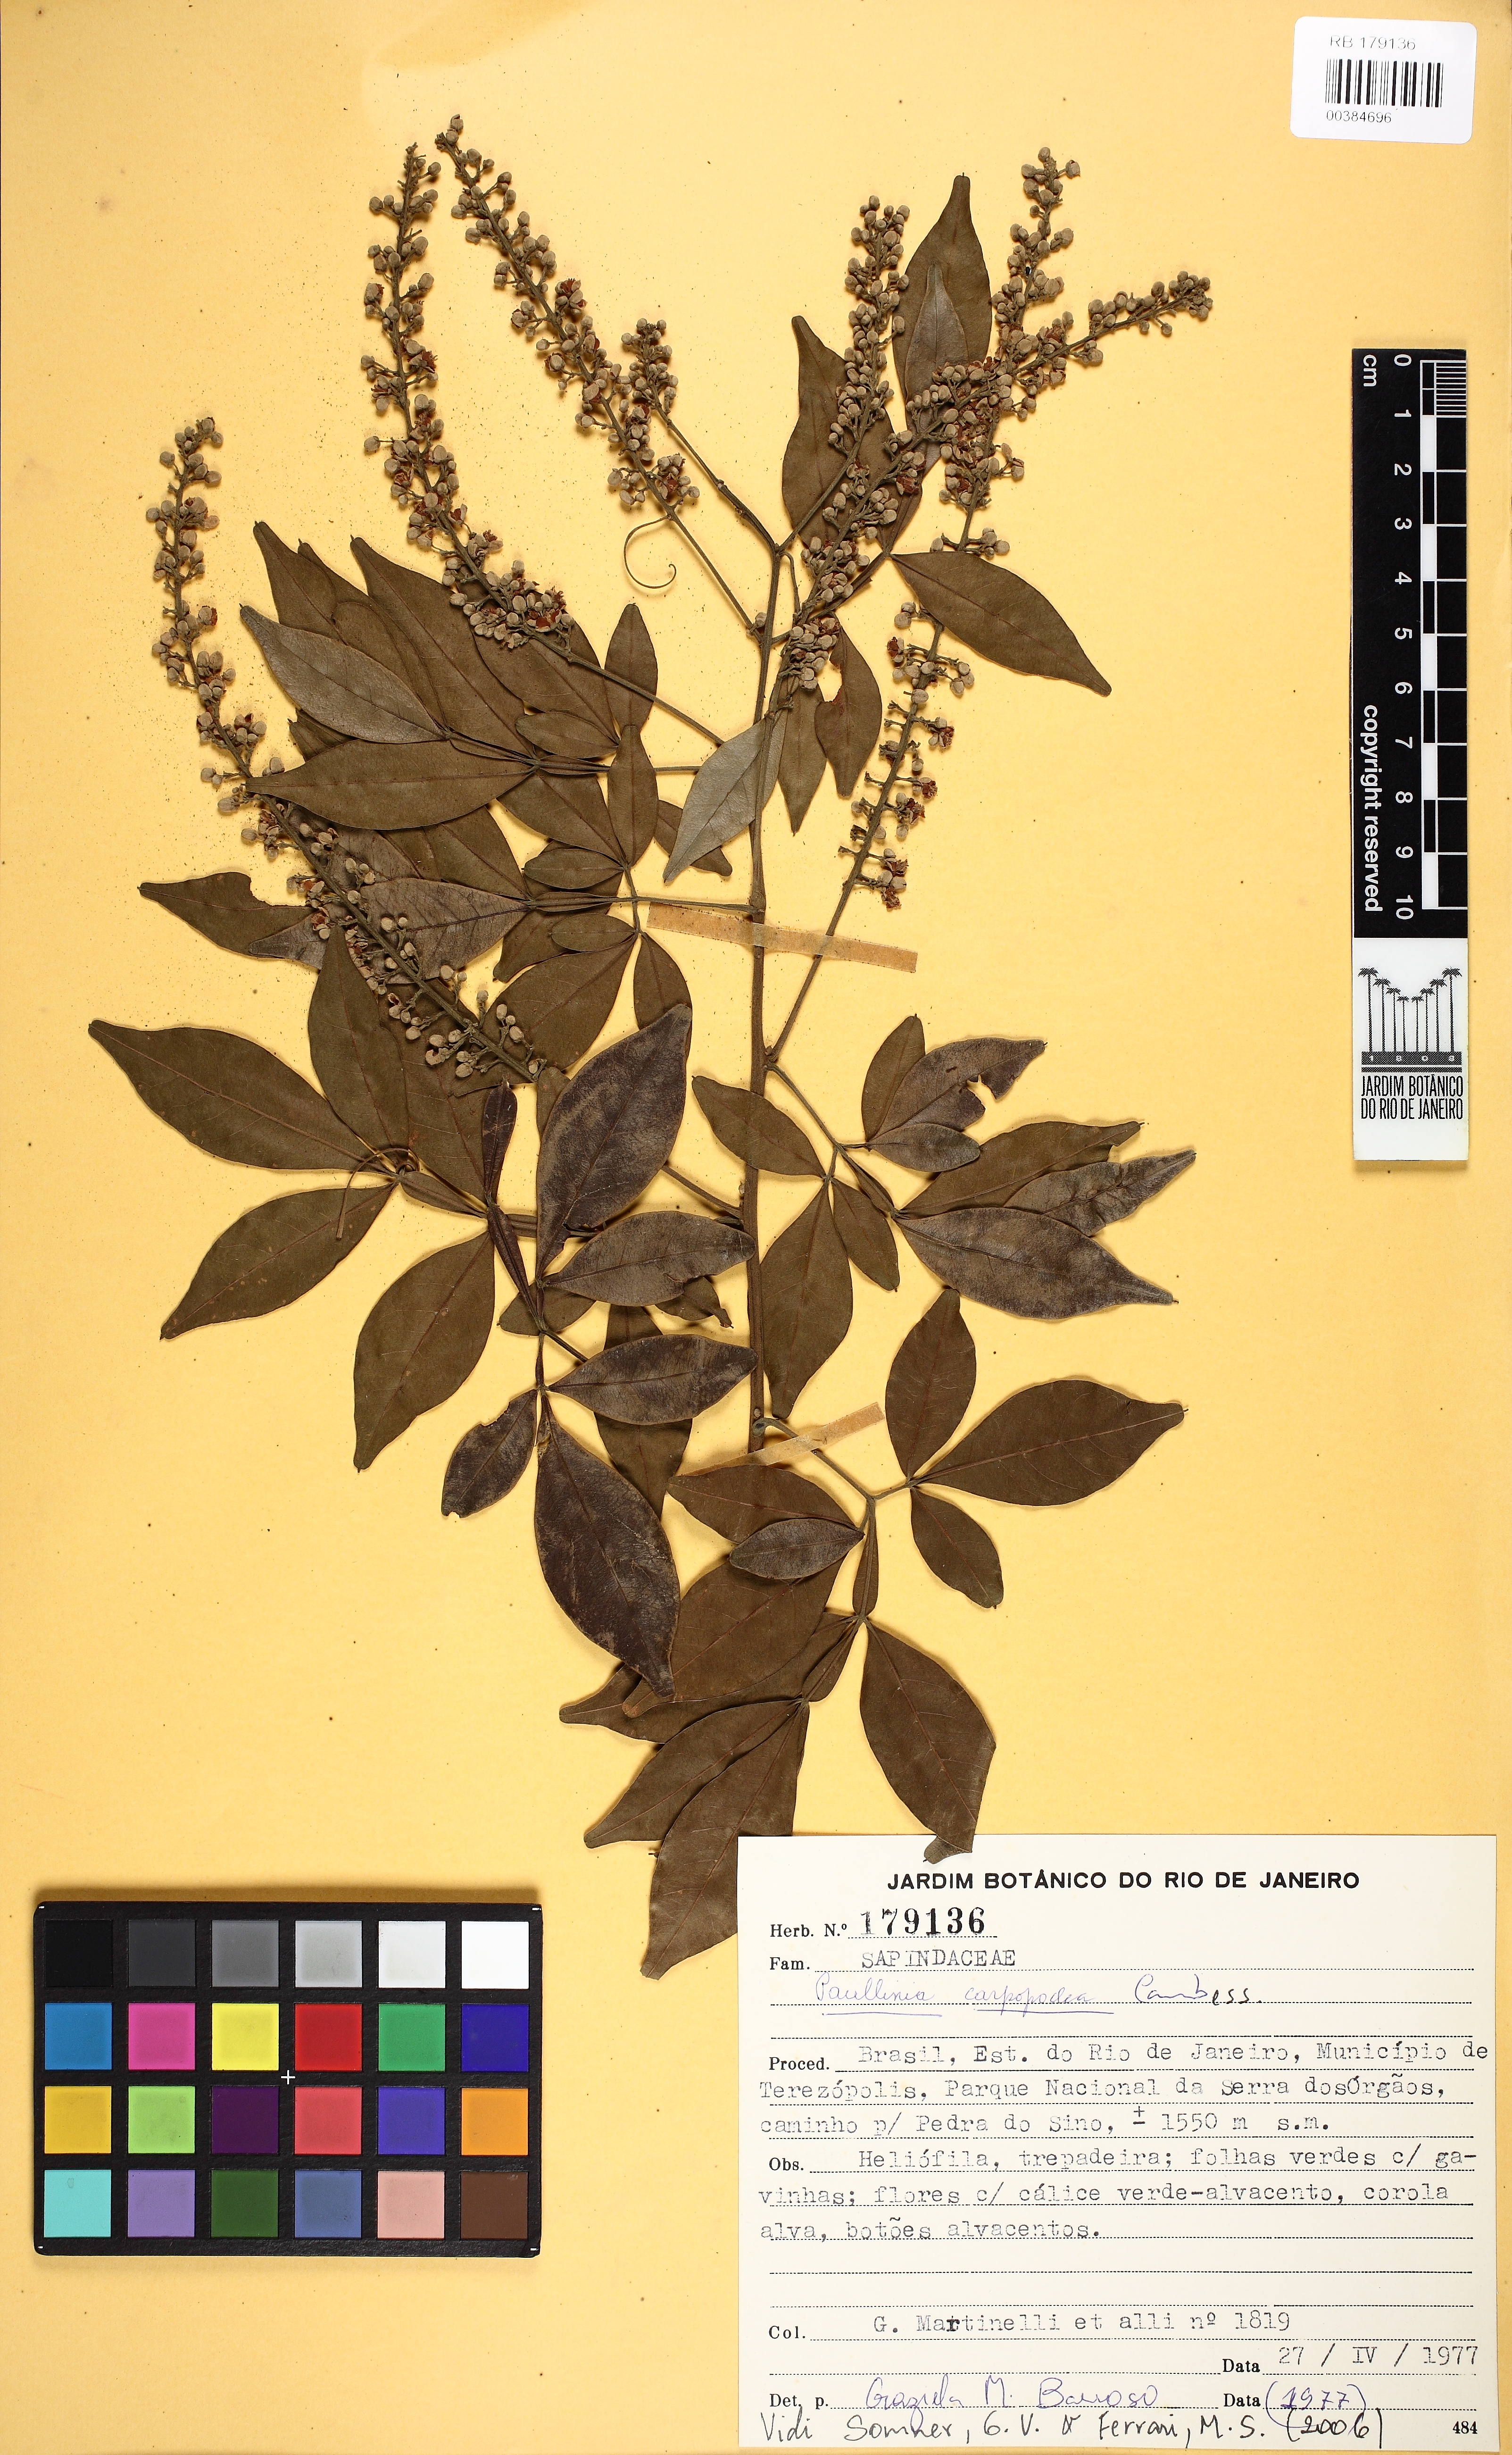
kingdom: Plantae
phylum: Tracheophyta
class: Magnoliopsida
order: Sapindales
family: Sapindaceae
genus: Paullinia
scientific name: Paullinia carpopodea
